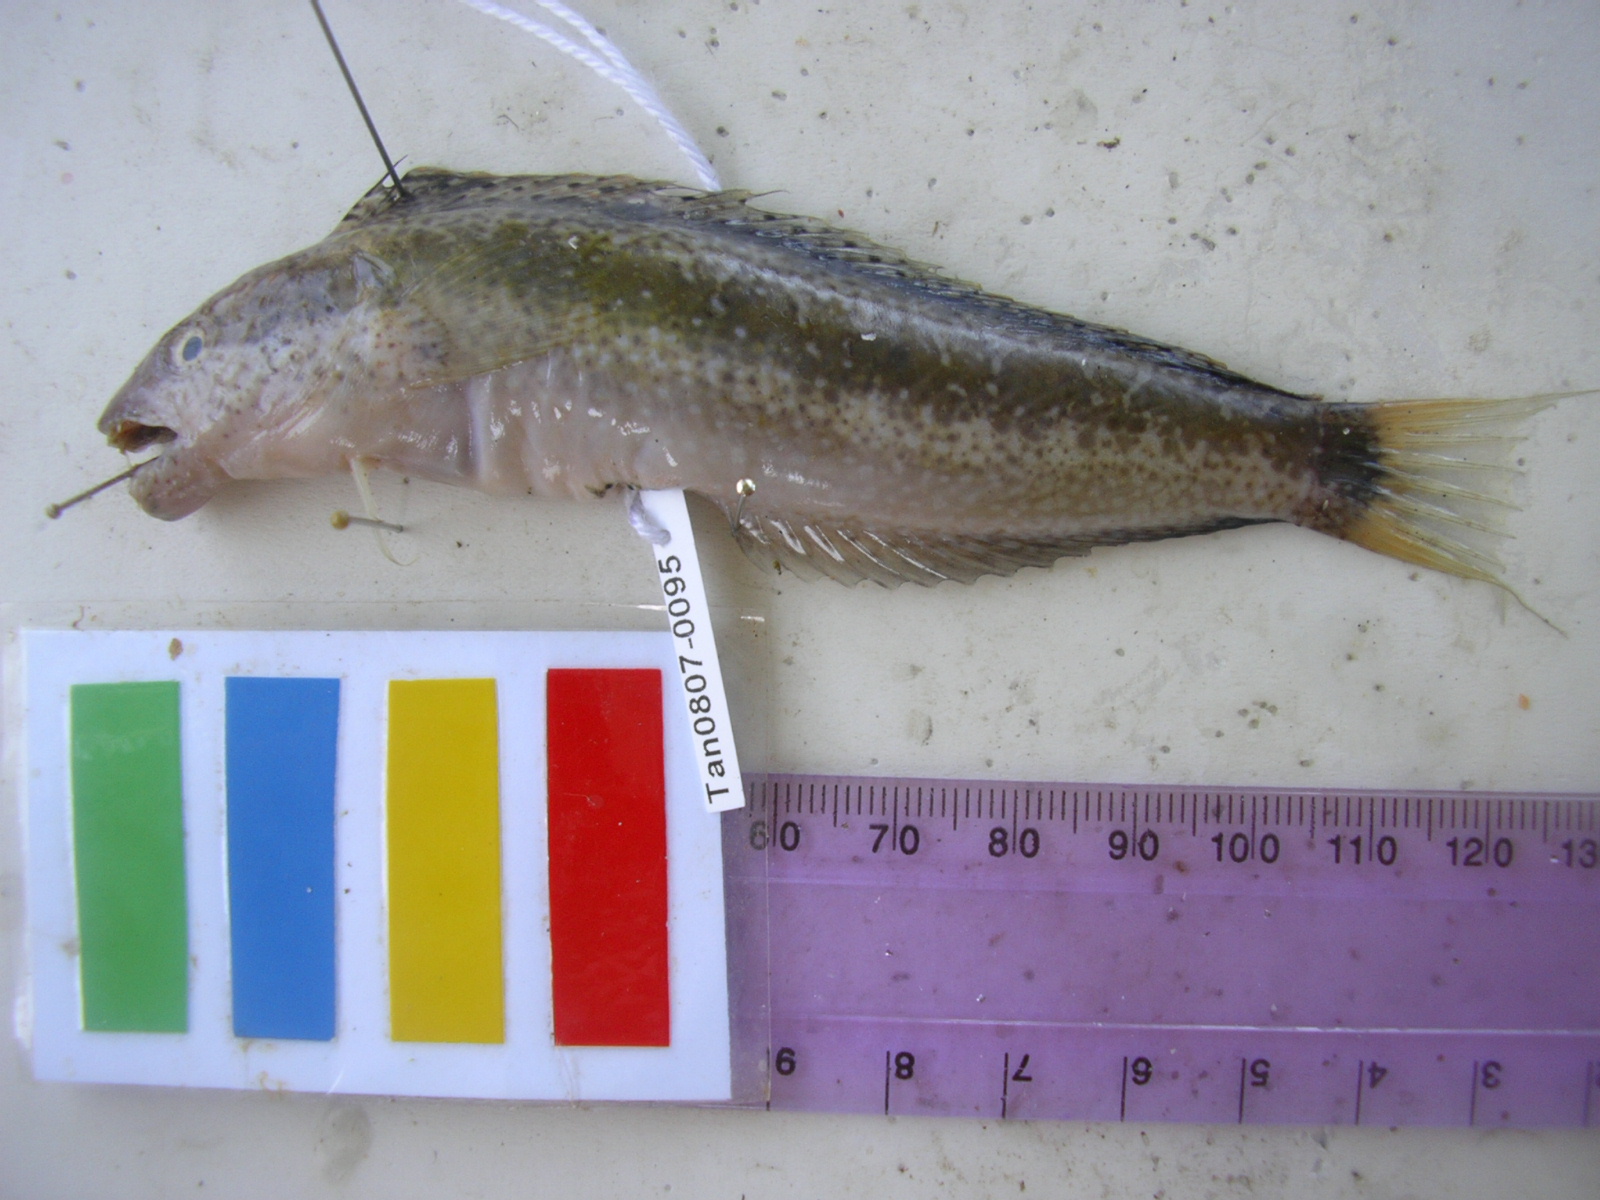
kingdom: Animalia
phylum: Chordata
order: Perciformes
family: Blenniidae
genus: Petroscirtes
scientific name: Petroscirtes breviceps
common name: Short-head sabretooth blenny
